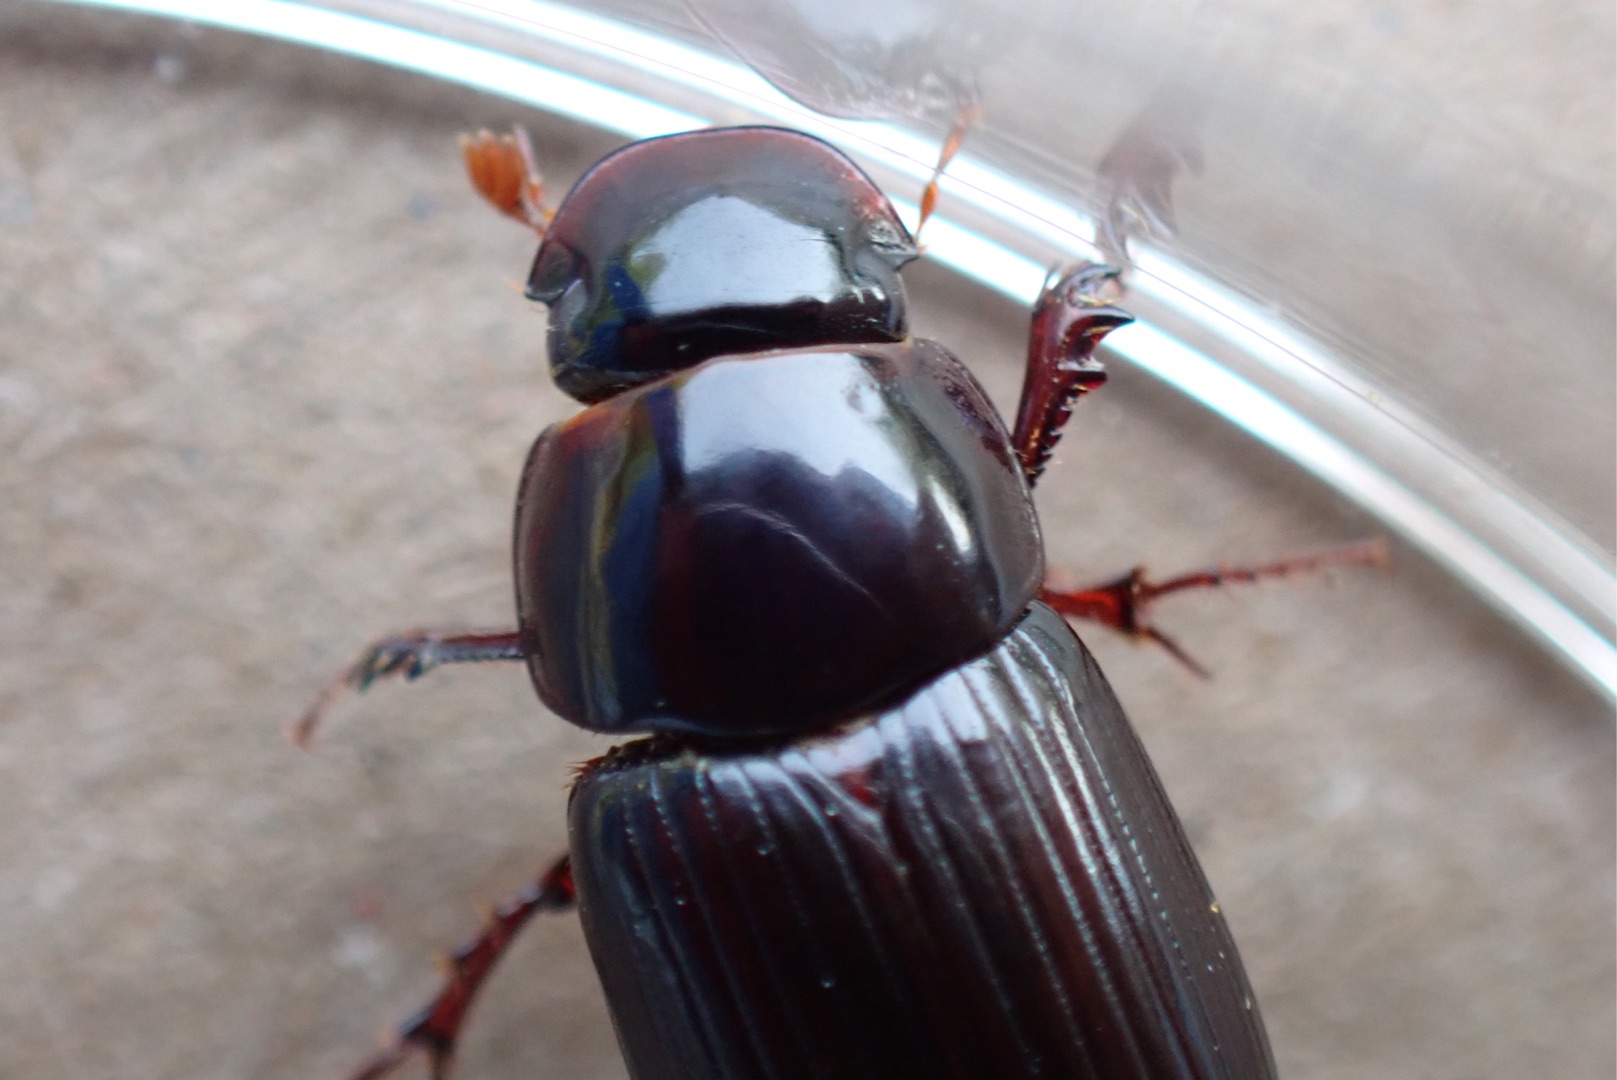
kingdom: Animalia
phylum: Arthropoda
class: Insecta
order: Coleoptera
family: Scarabaeidae
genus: Acrossus
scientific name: Acrossus rufipes
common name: Rødbenet møgbille
